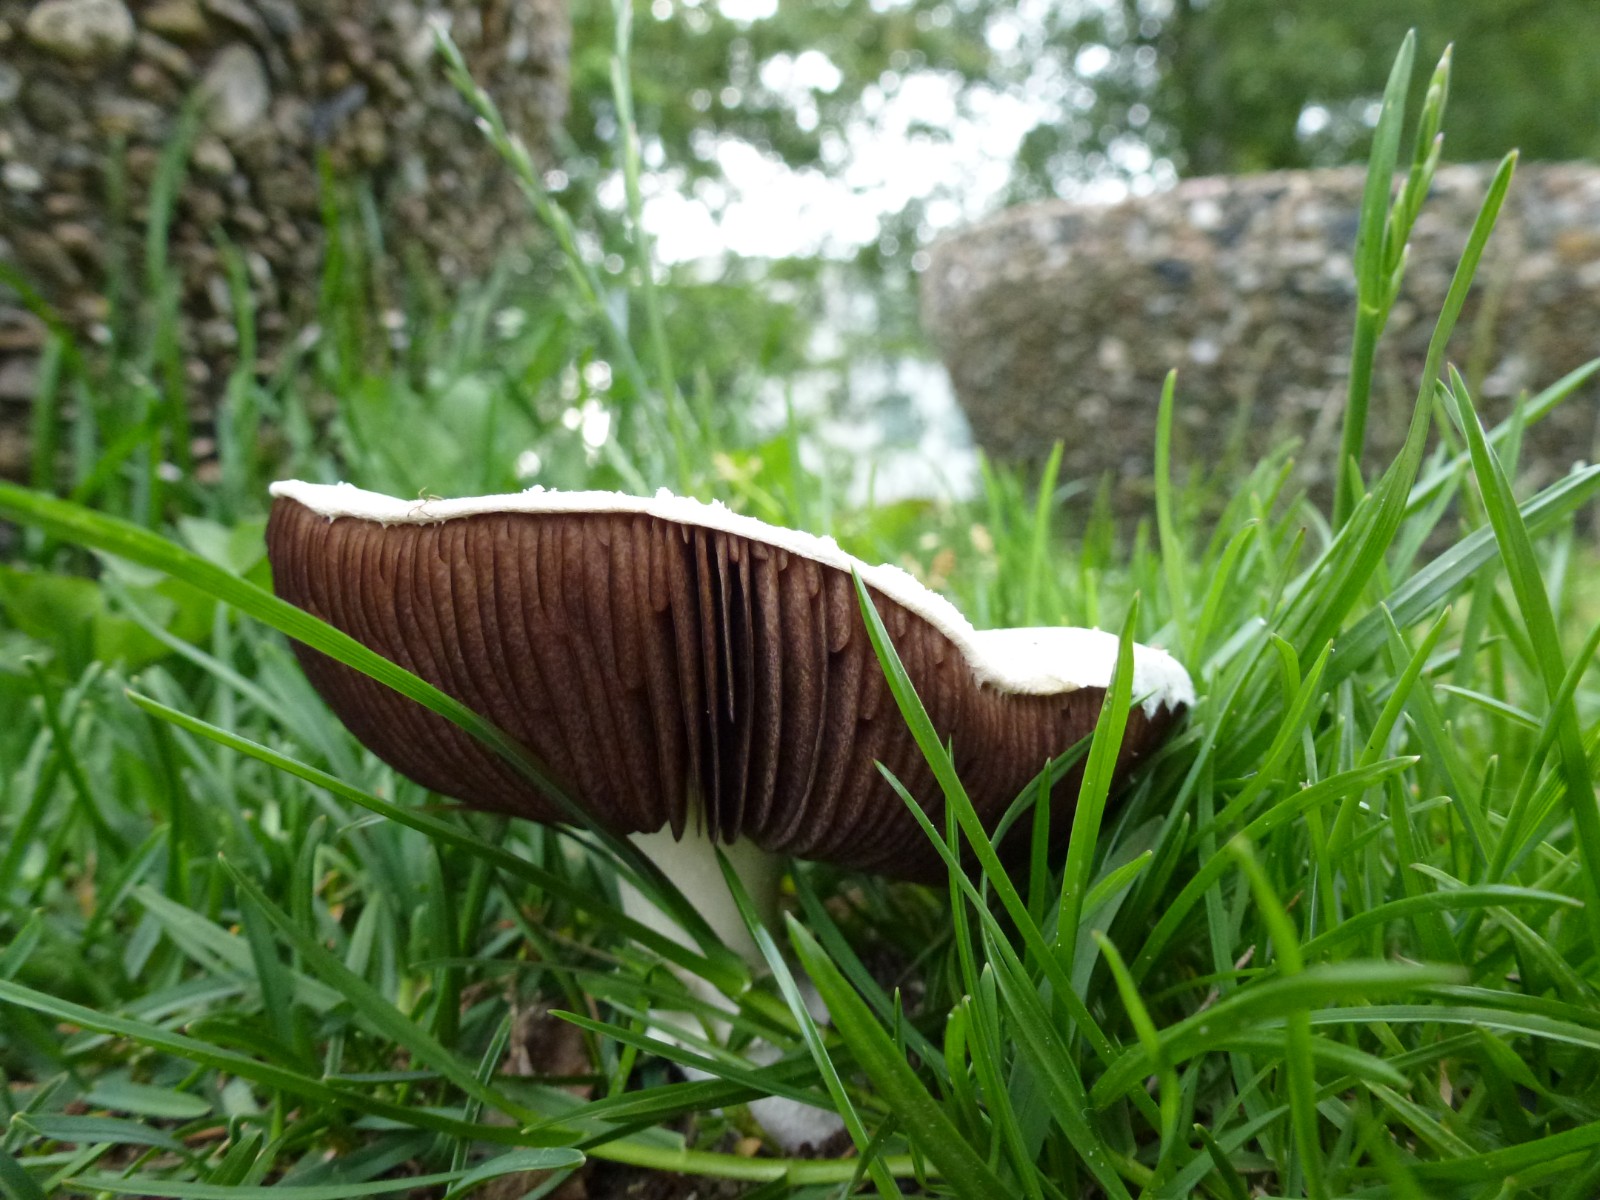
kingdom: Fungi
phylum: Basidiomycota
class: Agaricomycetes
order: Agaricales
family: Agaricaceae
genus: Agaricus
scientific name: Agaricus campestris
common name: mark-champignon
